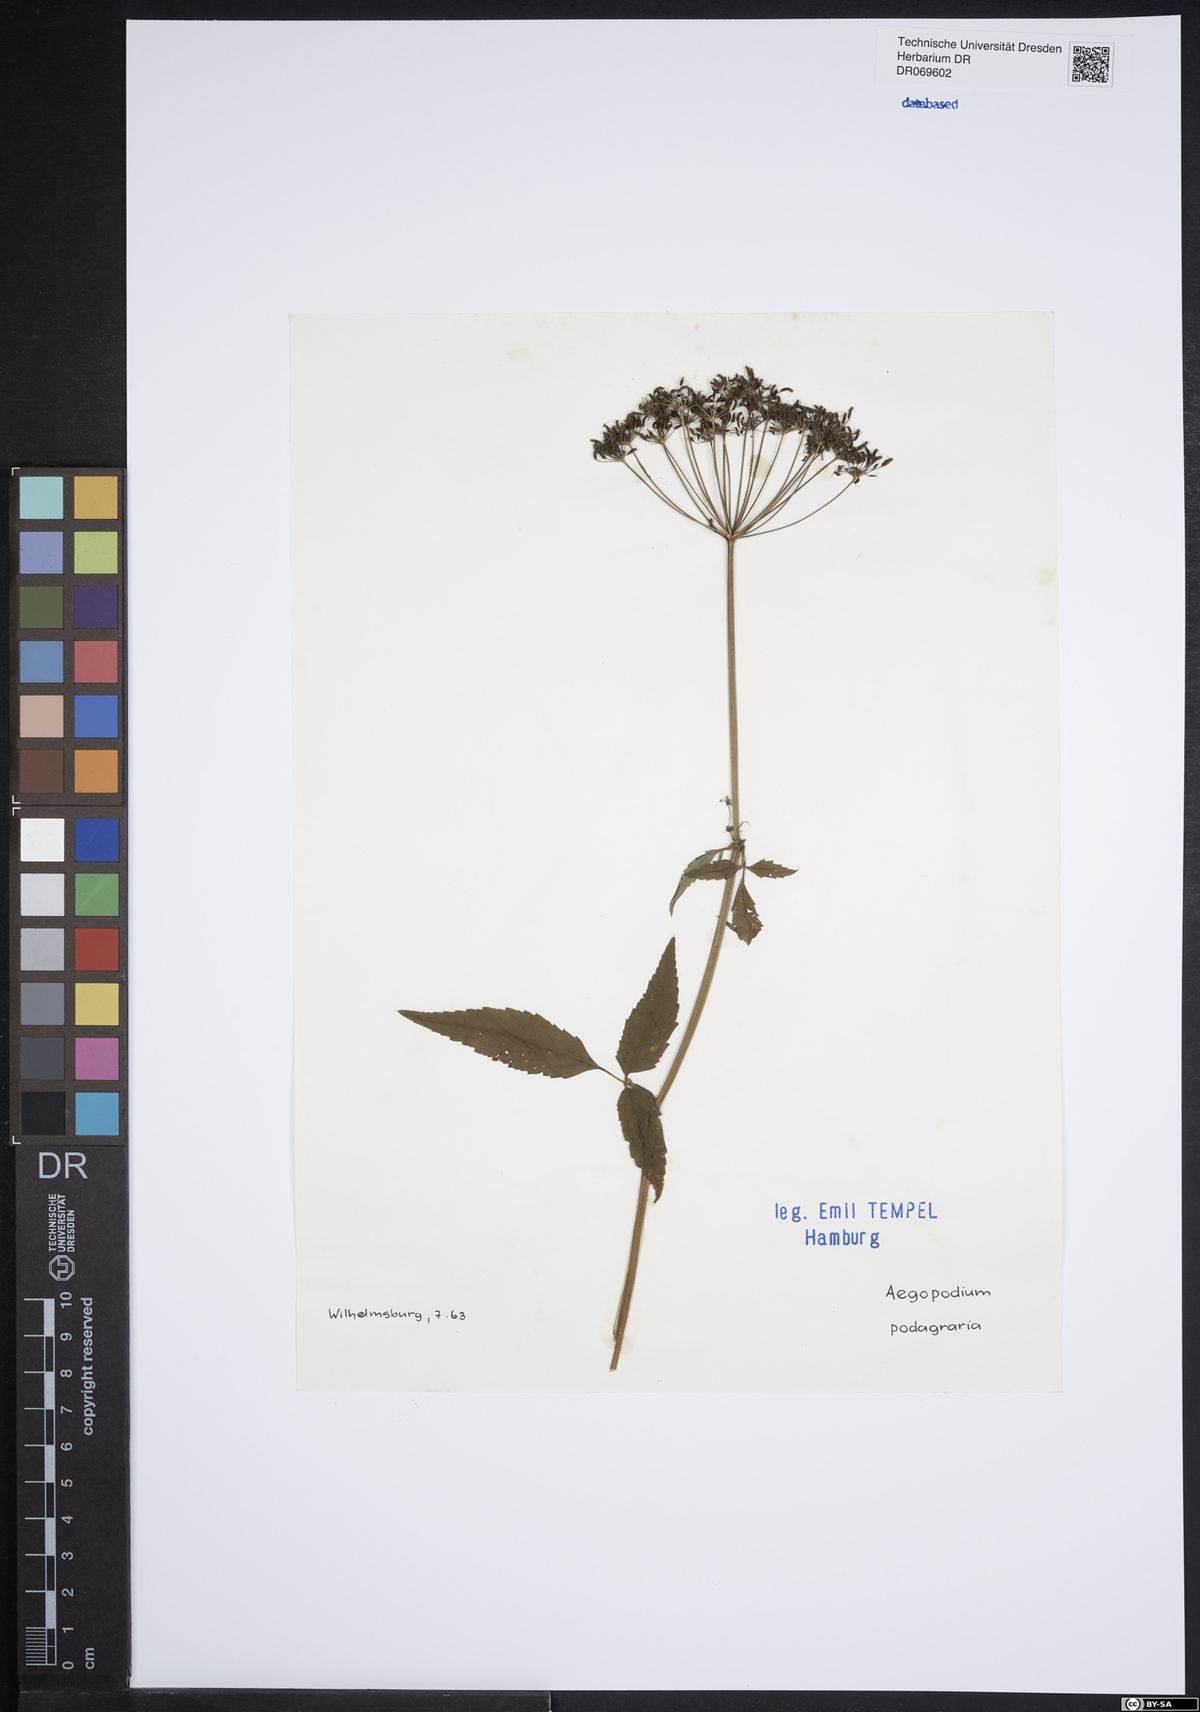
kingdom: Plantae
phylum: Tracheophyta
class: Magnoliopsida
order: Apiales
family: Apiaceae
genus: Aegopodium
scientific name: Aegopodium podagraria
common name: Ground-elder
